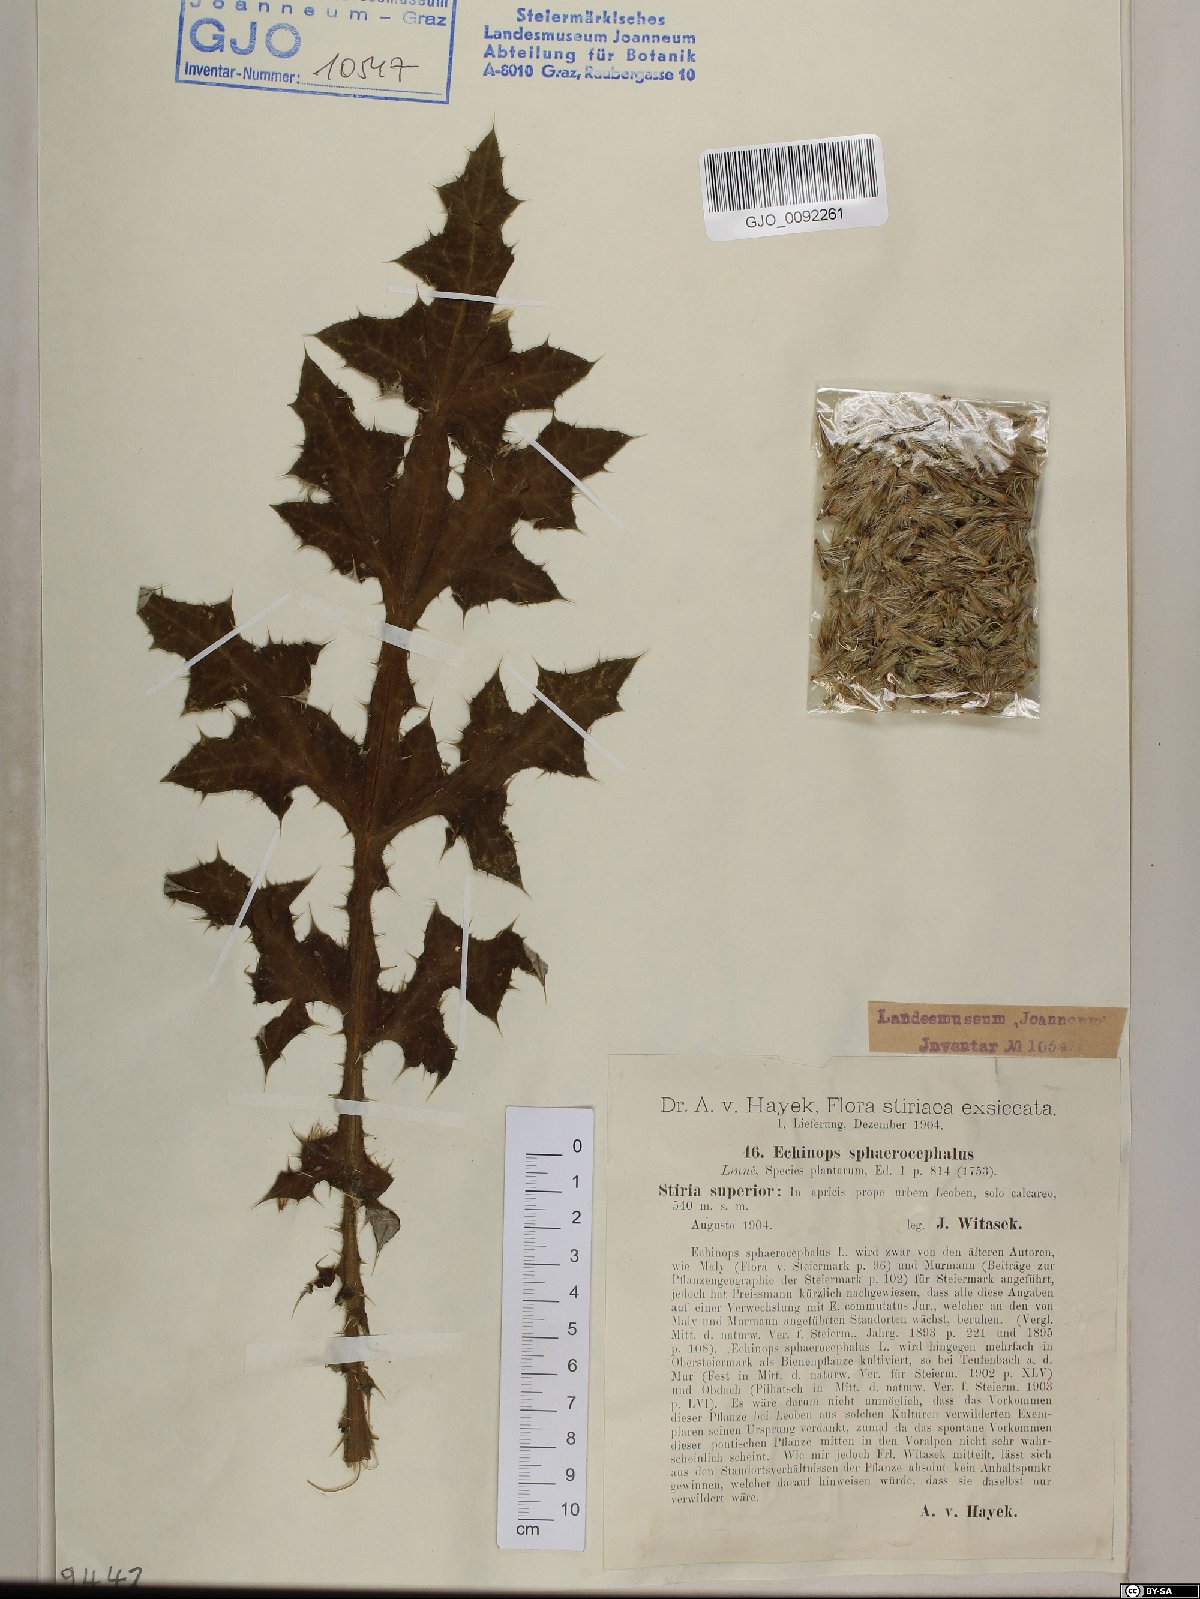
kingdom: Plantae
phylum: Tracheophyta
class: Magnoliopsida
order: Asterales
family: Asteraceae
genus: Echinops
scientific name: Echinops sphaerocephalus
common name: Glandular globe-thistle
